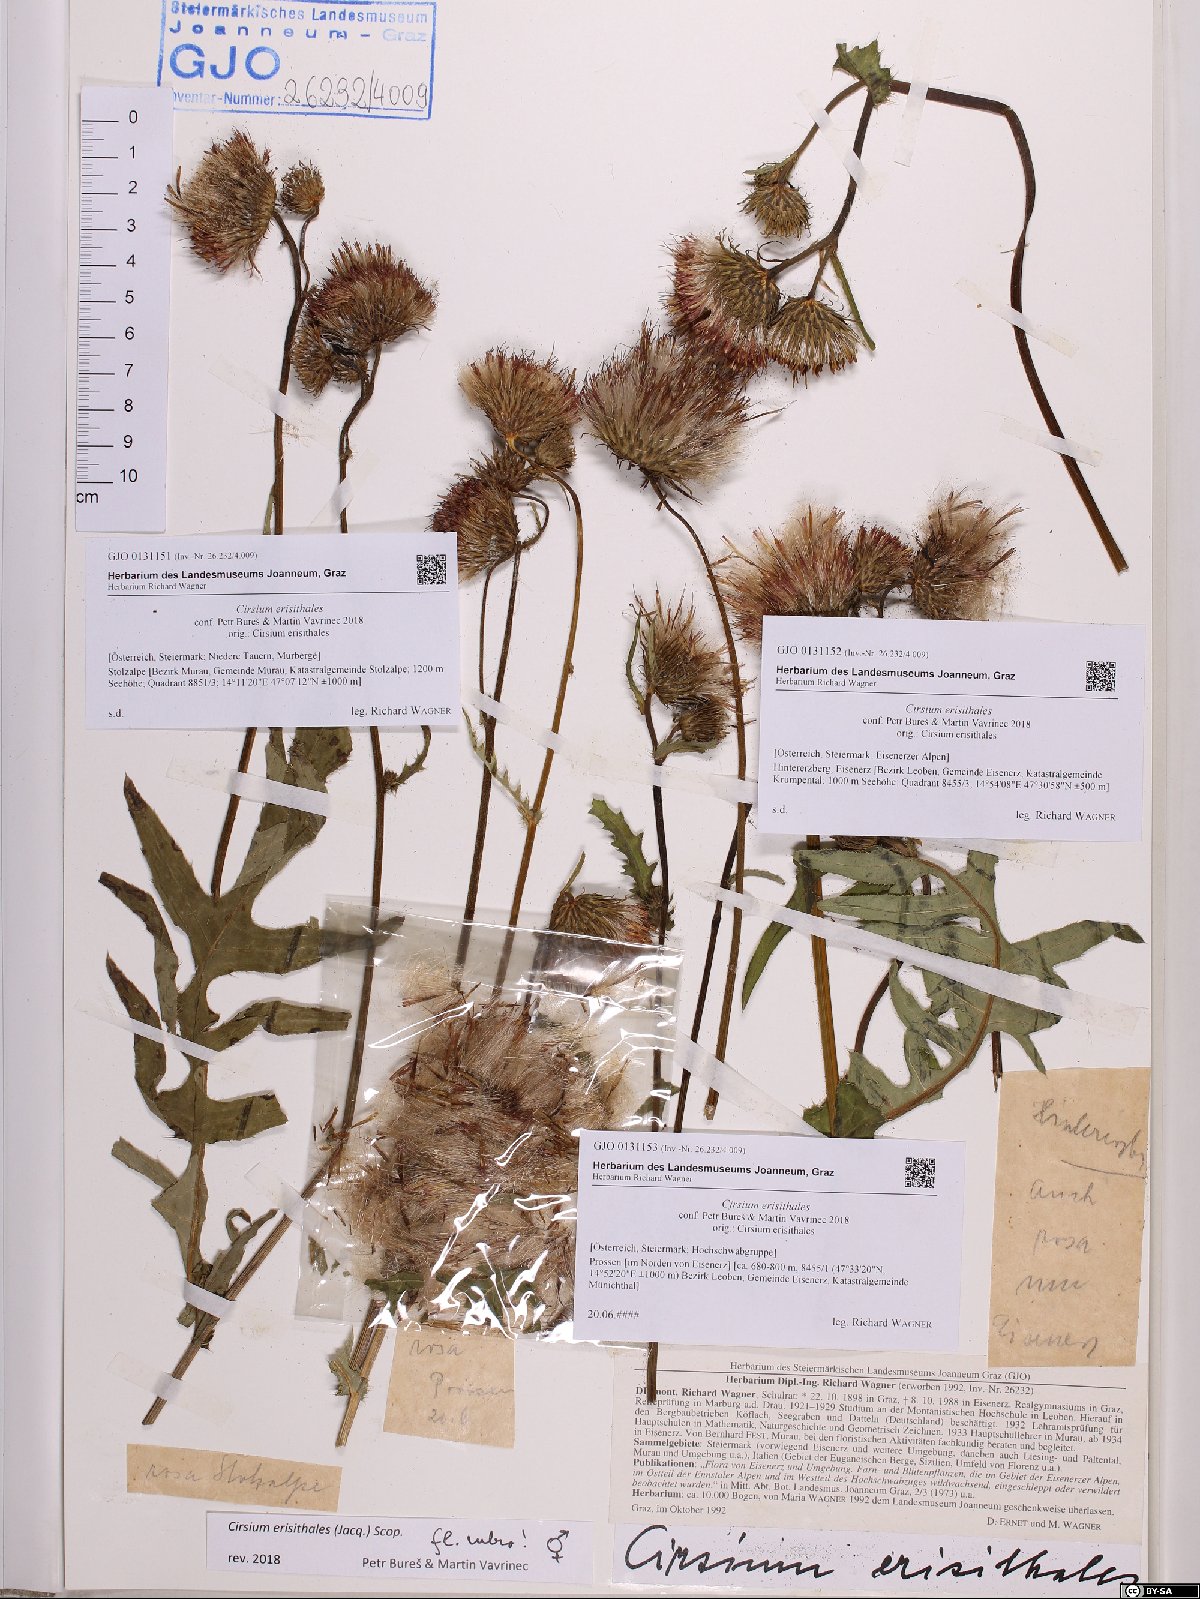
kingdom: Plantae
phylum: Tracheophyta
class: Magnoliopsida
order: Asterales
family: Asteraceae
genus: Cirsium
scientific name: Cirsium erisithales
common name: Yellow thistle
